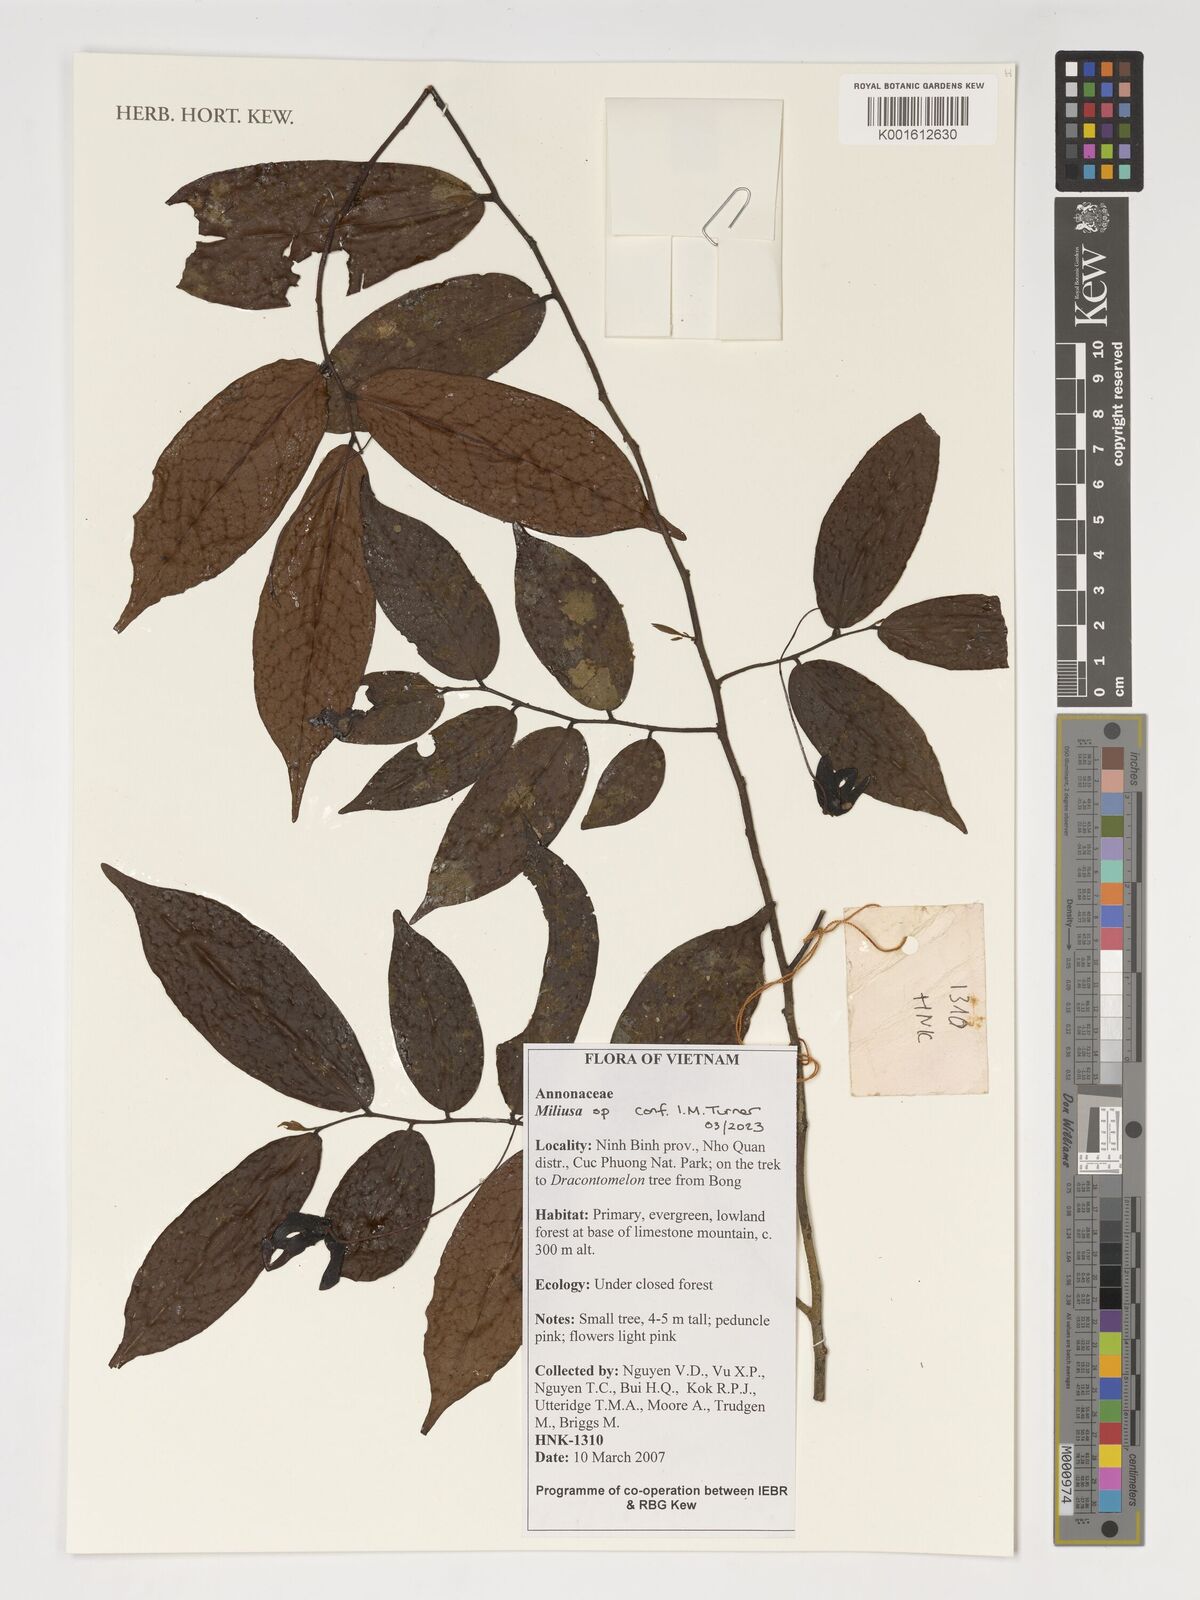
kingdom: Plantae
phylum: Tracheophyta
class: Magnoliopsida
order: Magnoliales
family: Annonaceae
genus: Miliusa
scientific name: Miliusa
